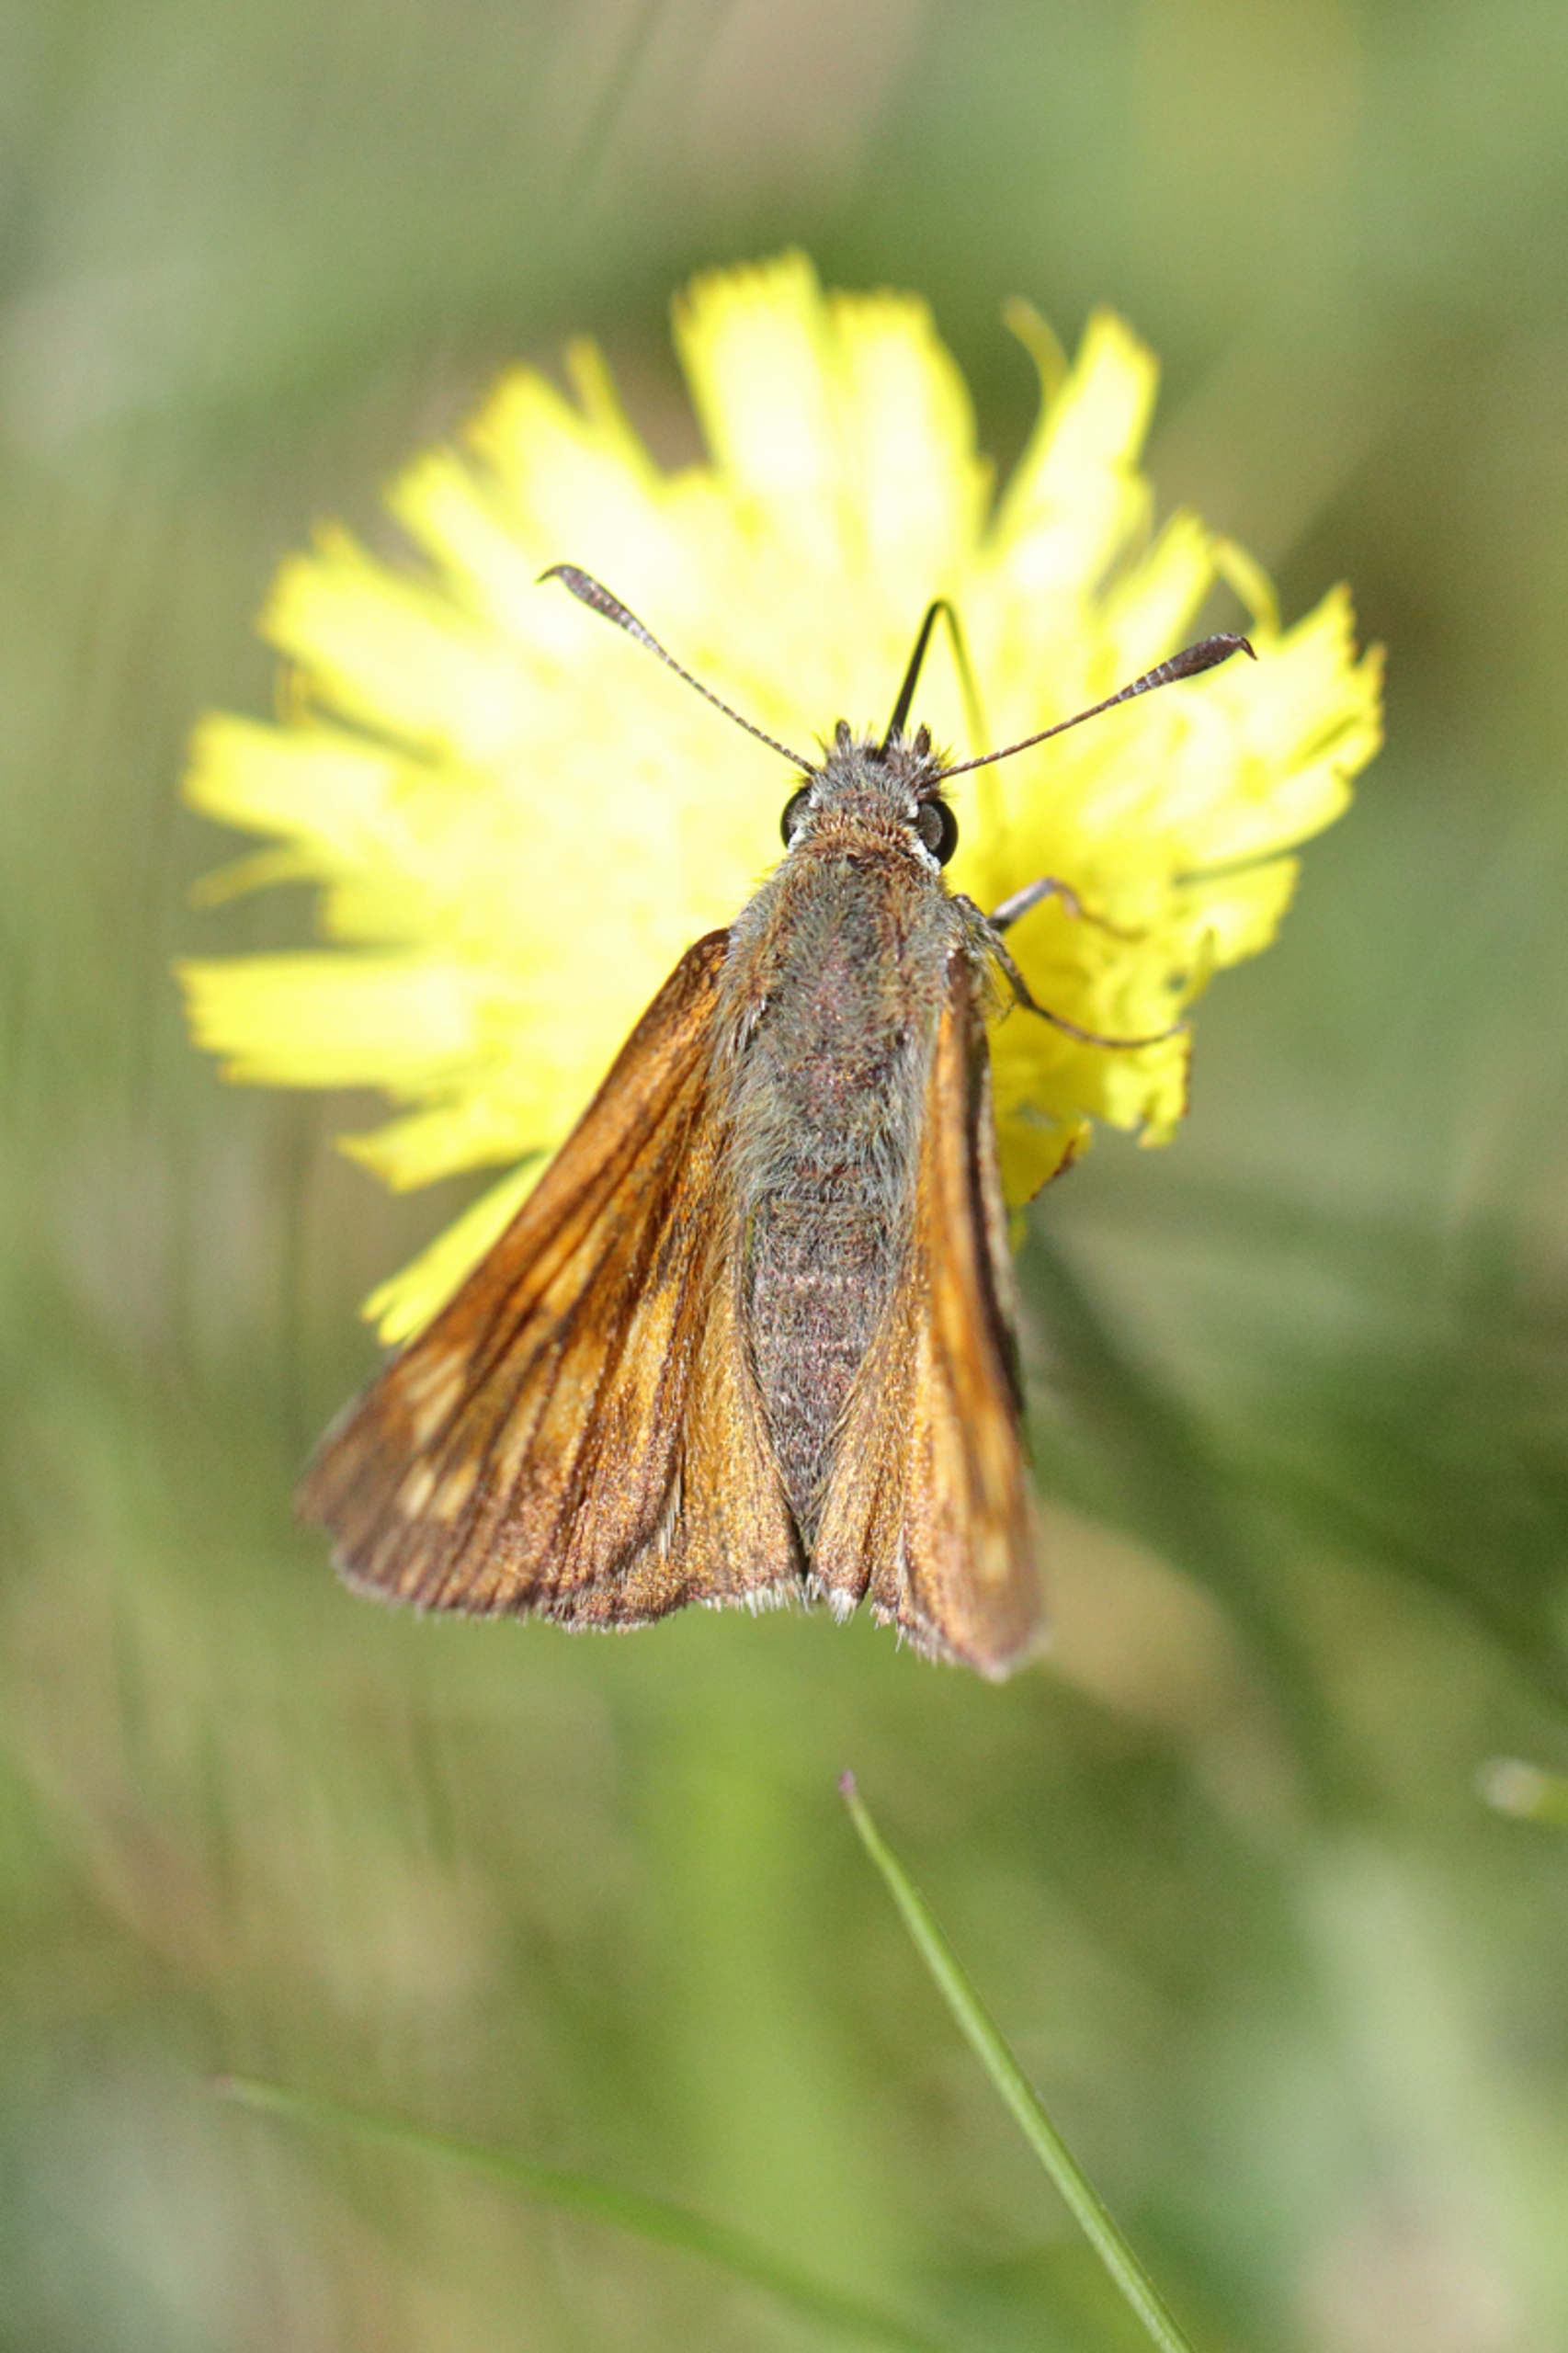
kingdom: Animalia
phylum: Arthropoda
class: Insecta
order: Lepidoptera
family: Hesperiidae
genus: Ochlodes
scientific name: Ochlodes venata
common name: Stor bredpande
